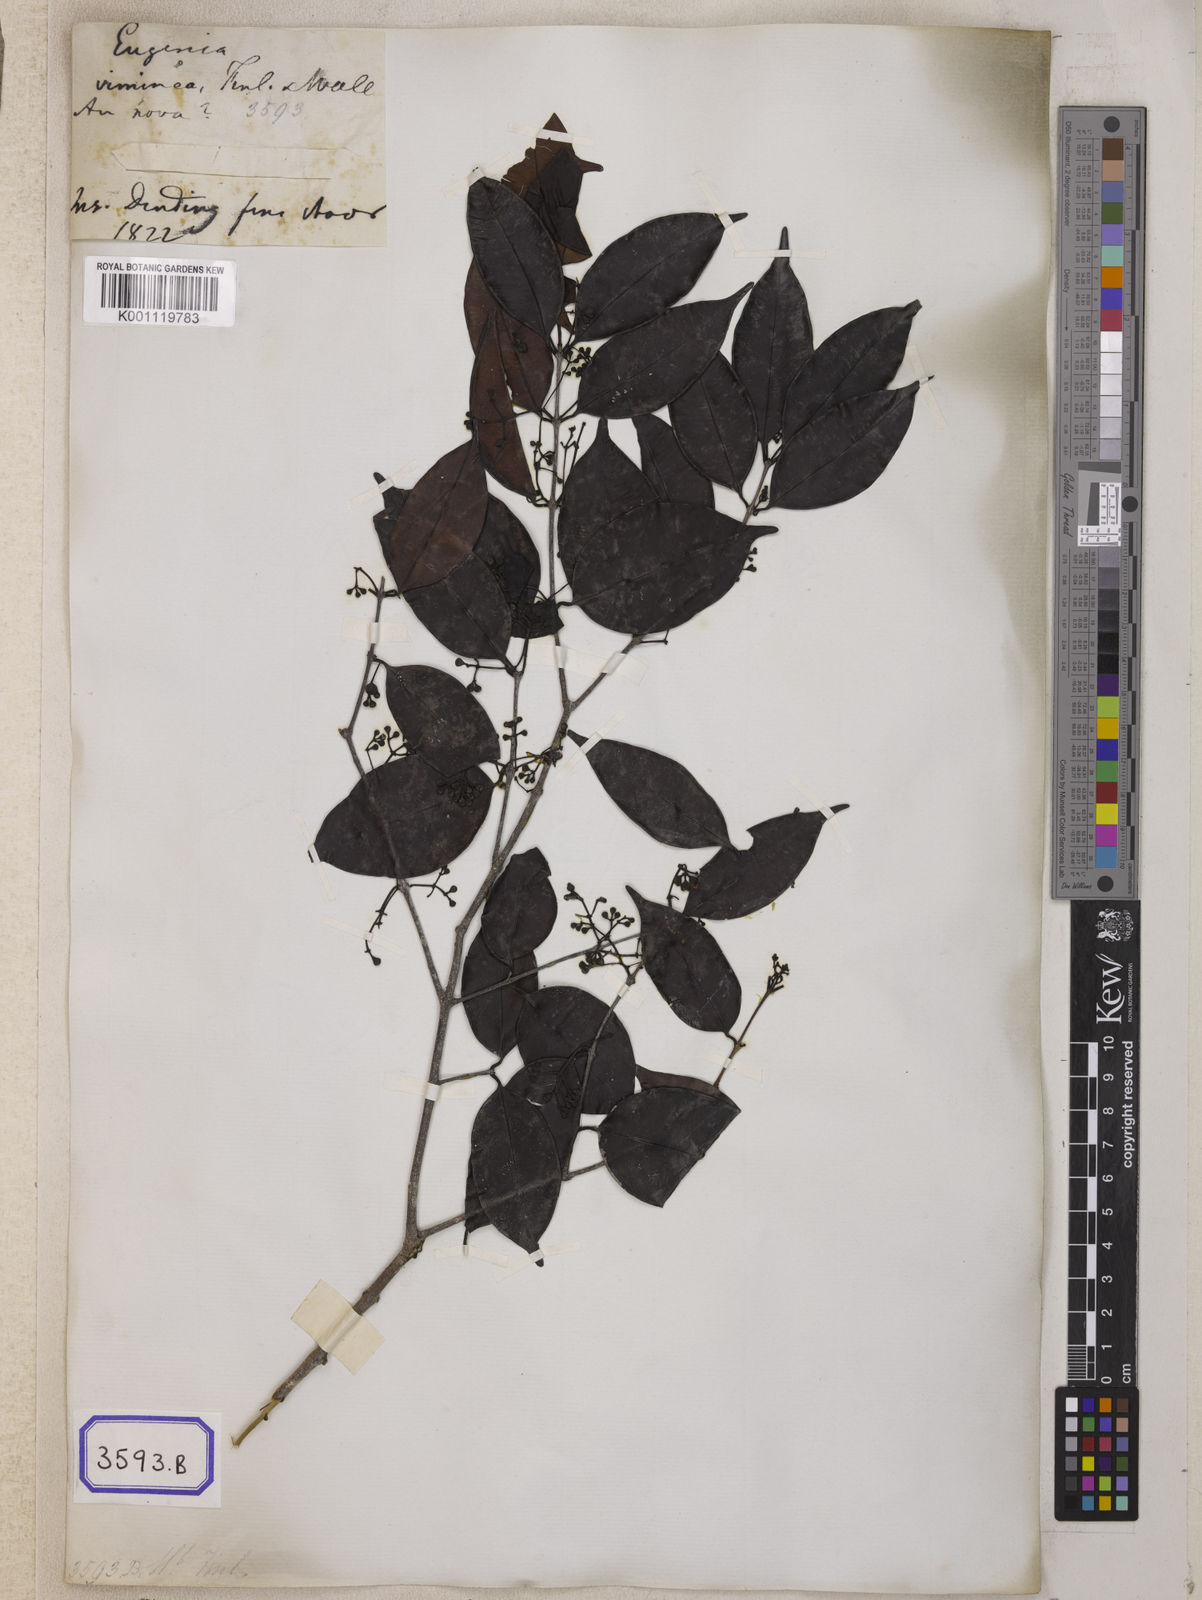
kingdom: Plantae
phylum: Tracheophyta
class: Magnoliopsida
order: Myrtales
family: Myrtaceae
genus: Syzygium
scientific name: Syzygium
